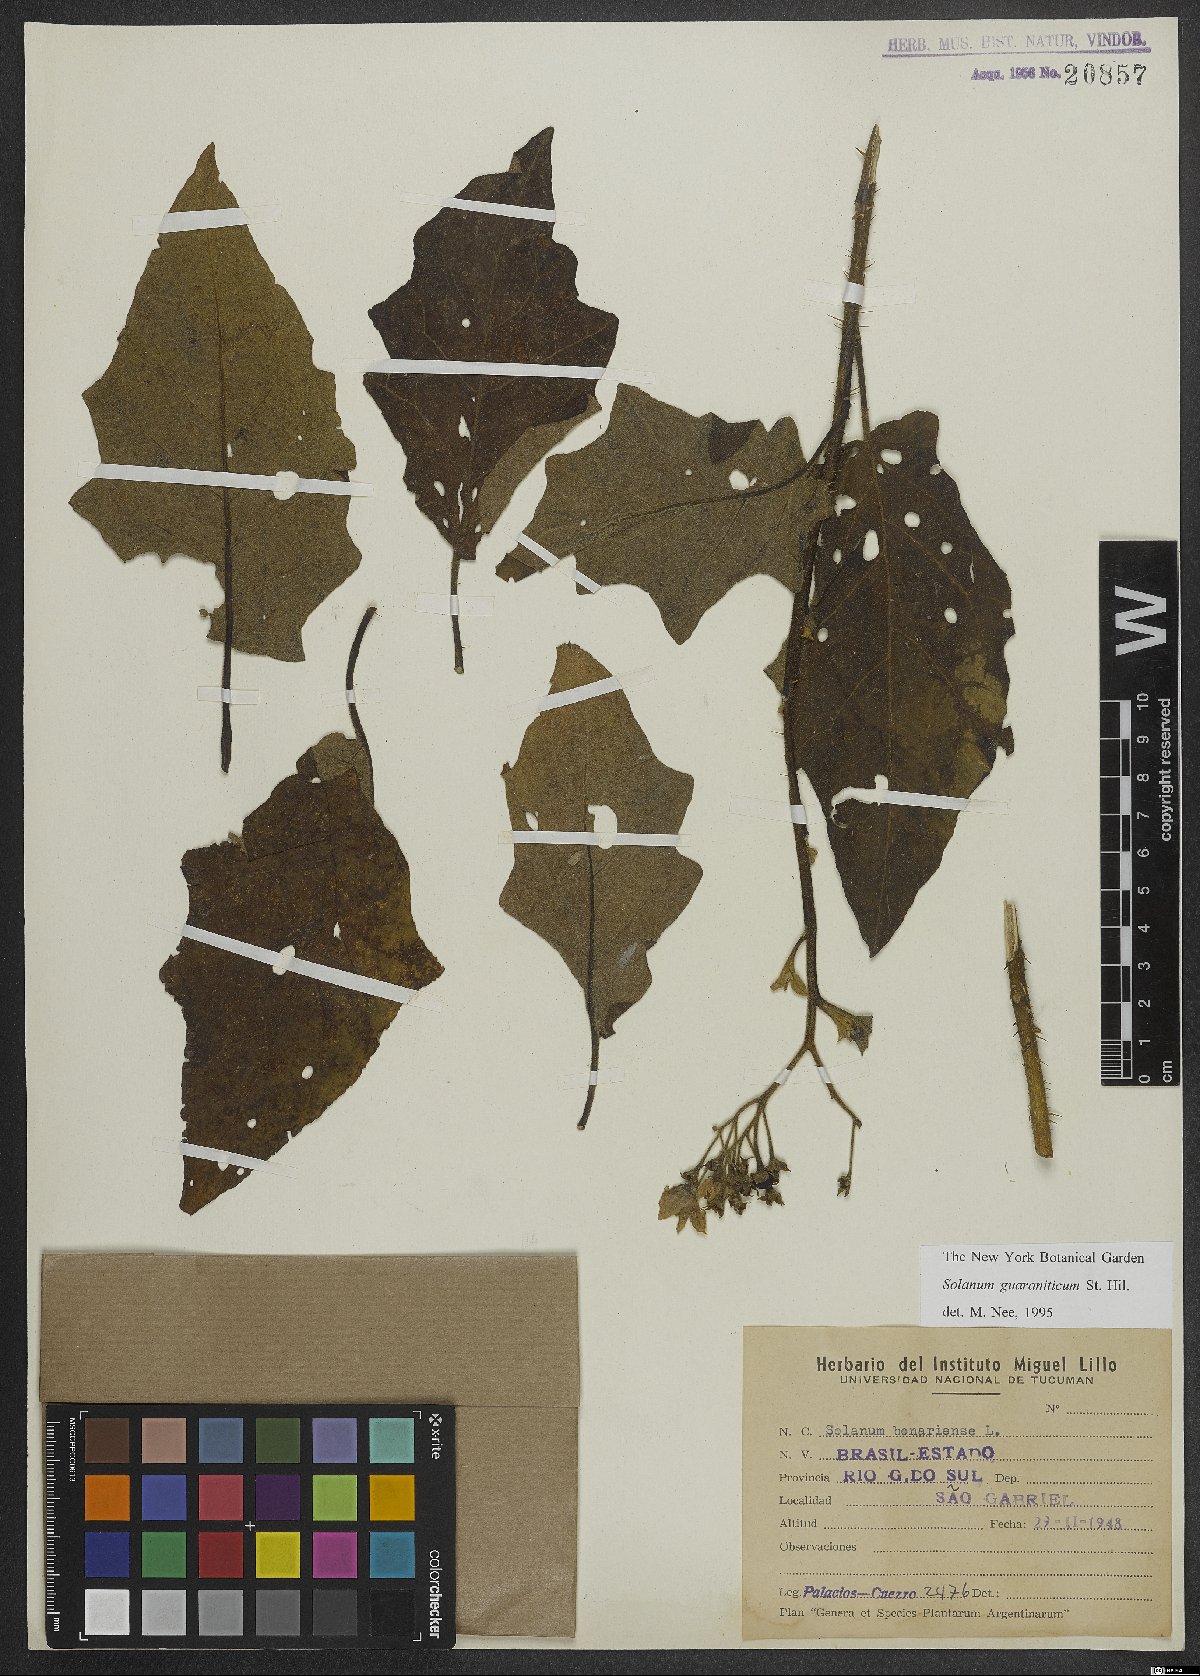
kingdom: Plantae
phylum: Tracheophyta
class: Magnoliopsida
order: Solanales
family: Solanaceae
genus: Solanum
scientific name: Solanum guaraniticum
